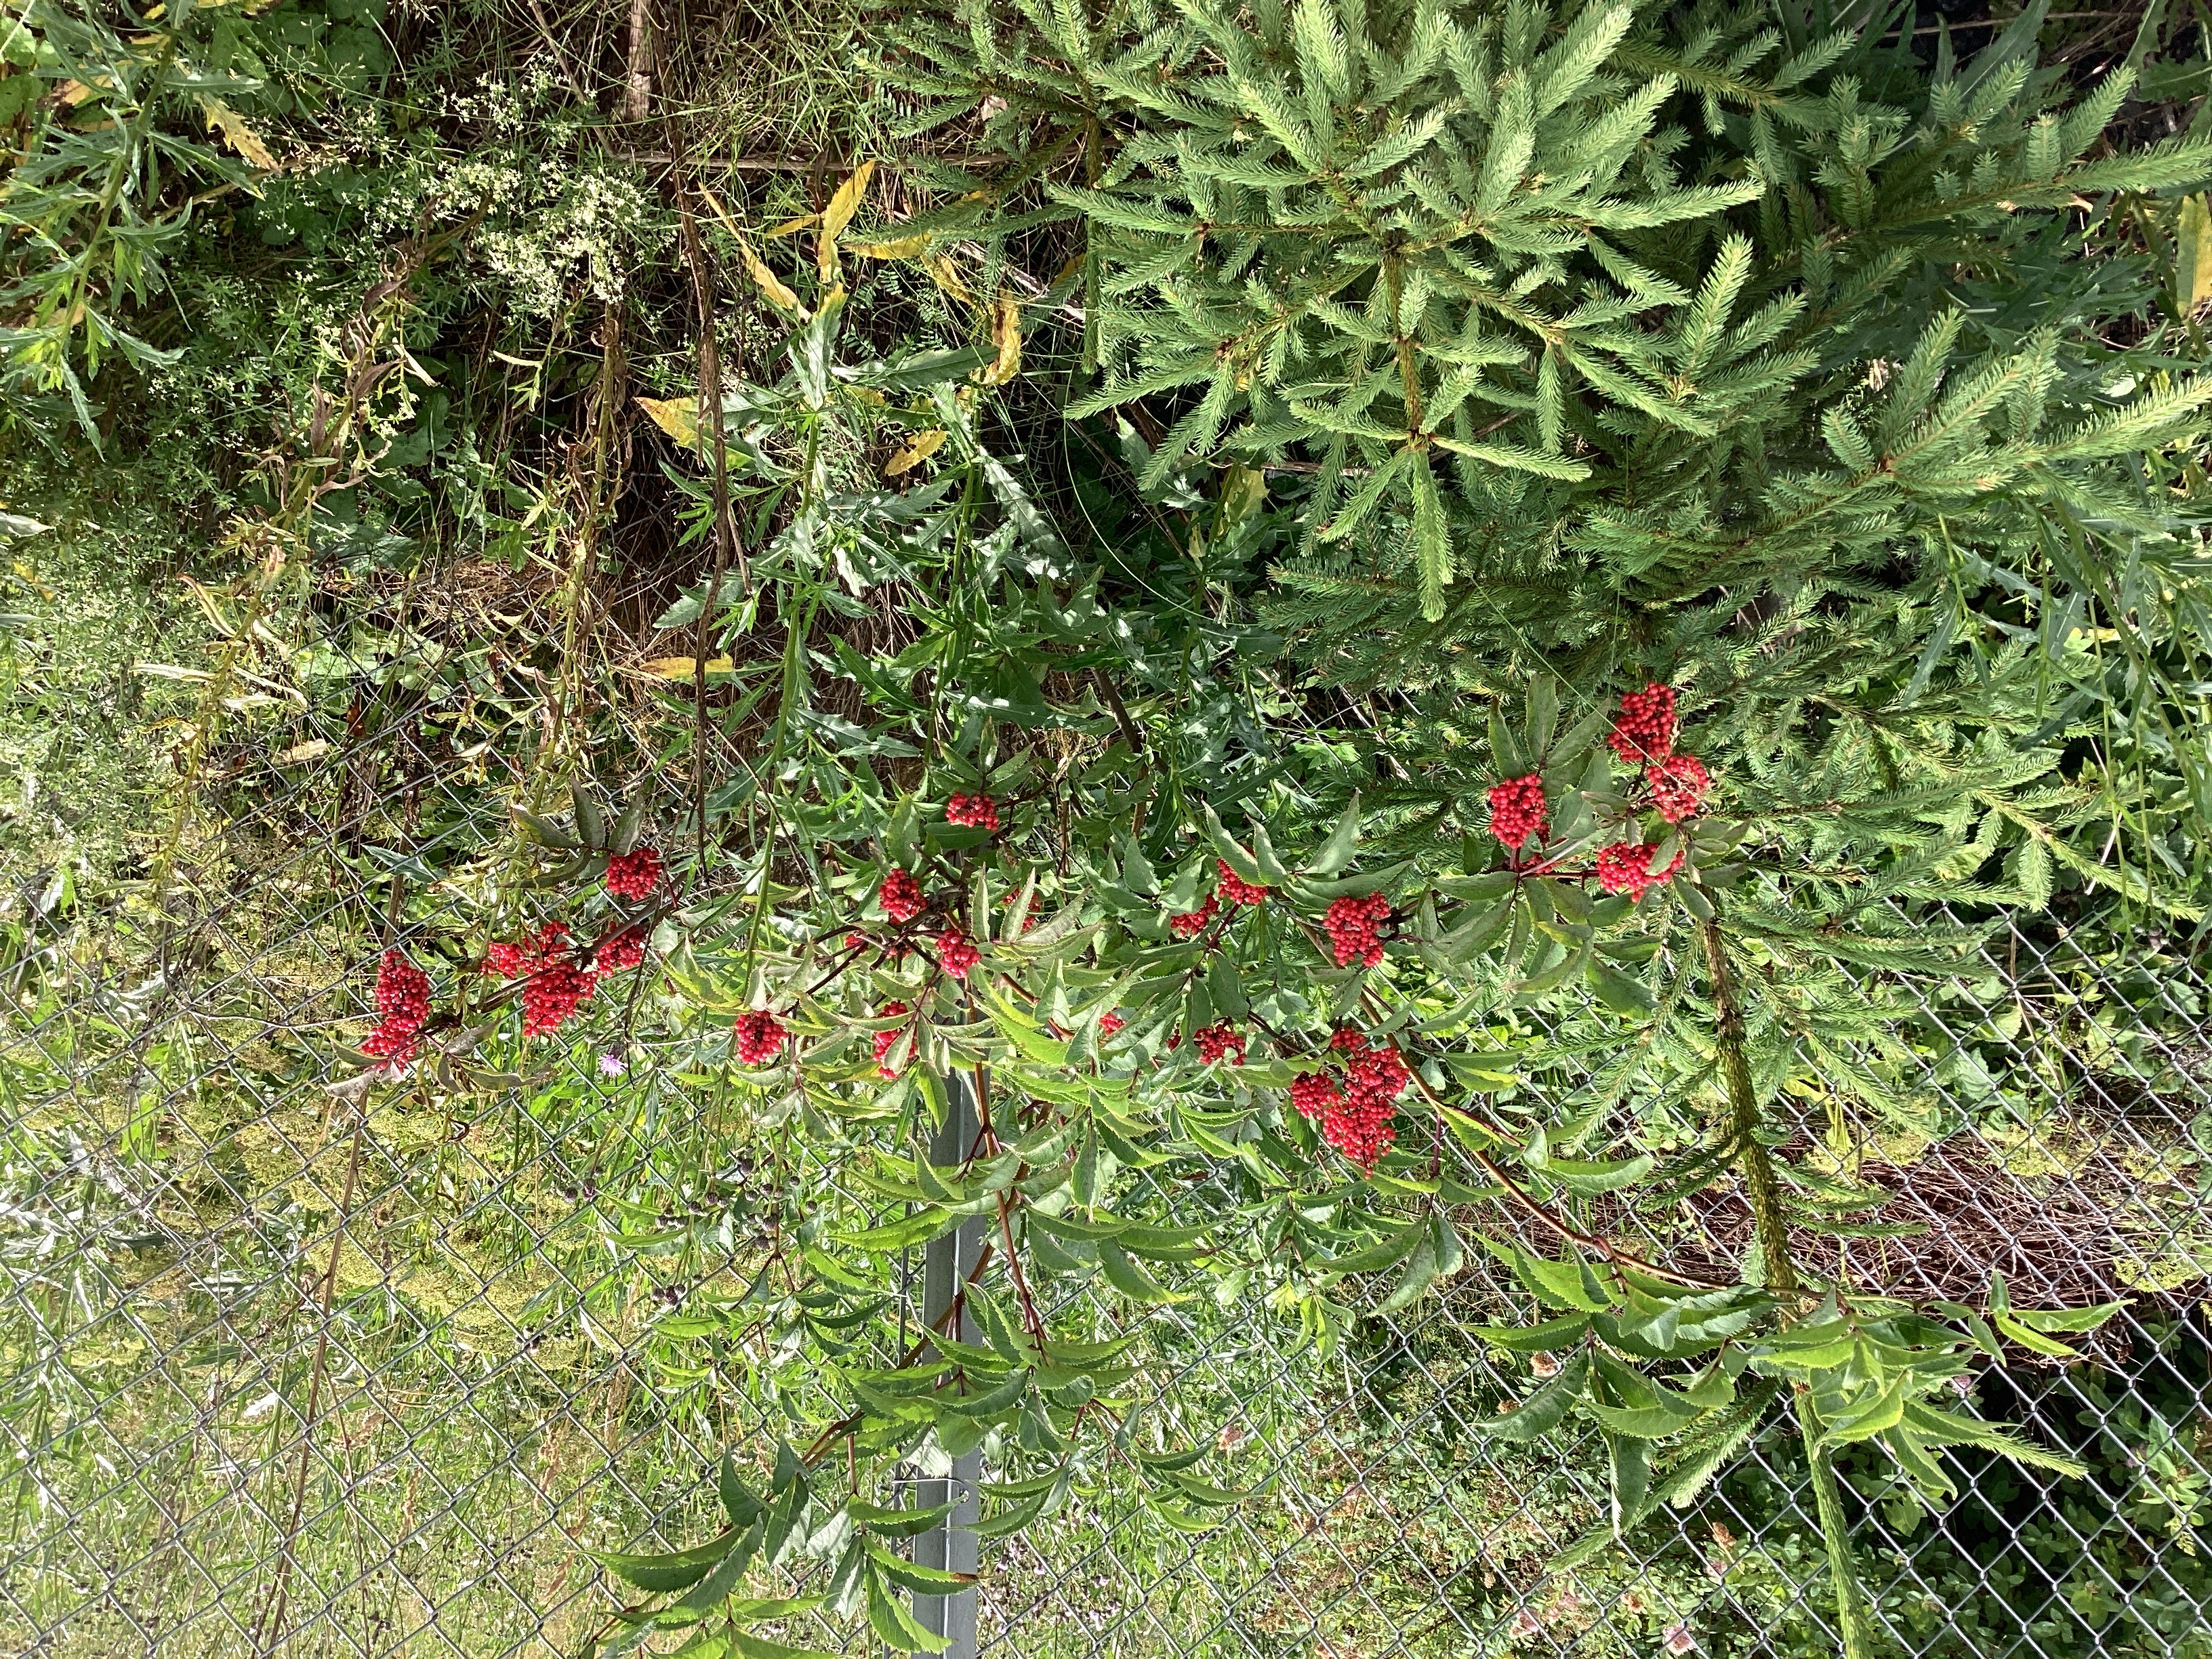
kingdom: Plantae
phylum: Tracheophyta
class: Magnoliopsida
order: Dipsacales
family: Viburnaceae
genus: Sambucus
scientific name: Sambucus racemosa
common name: rødhyll
